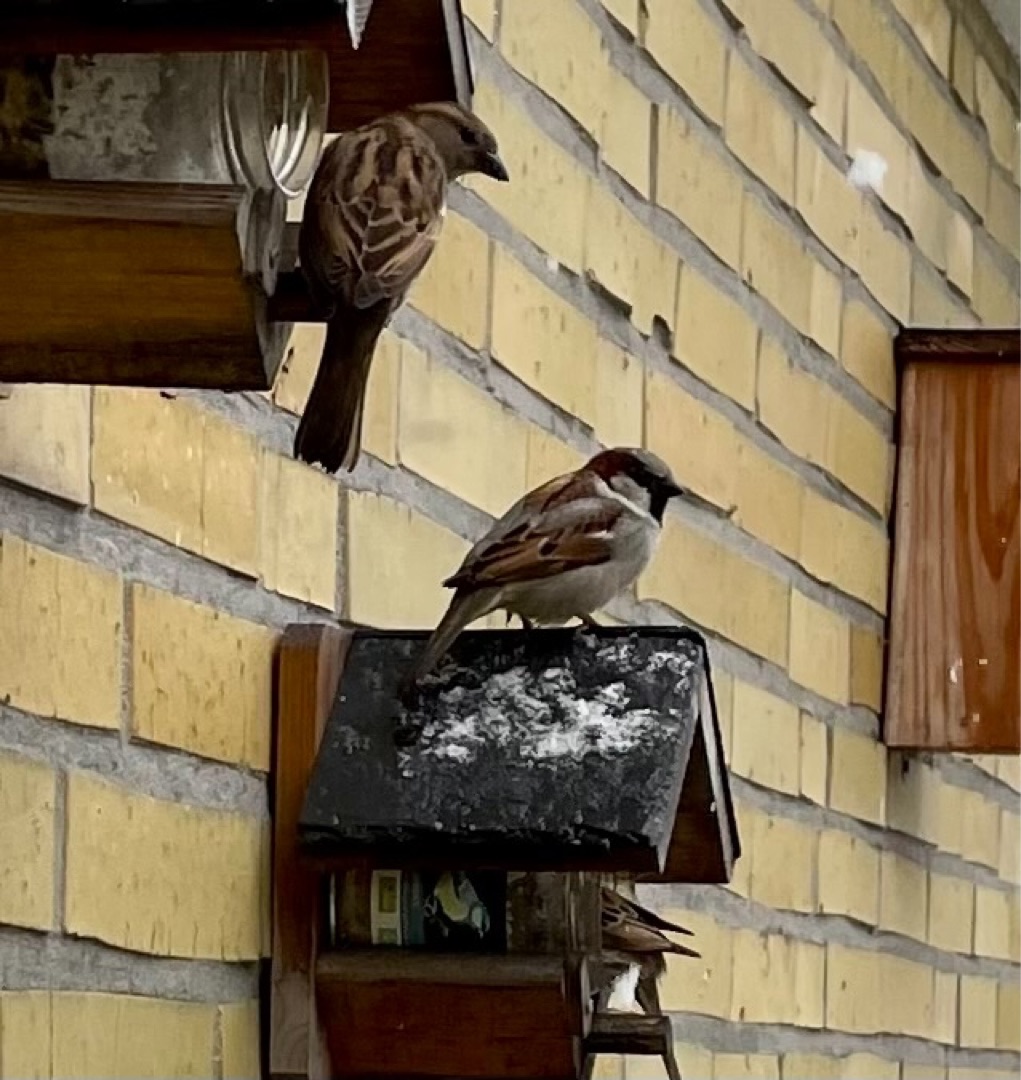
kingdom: Animalia
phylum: Chordata
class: Aves
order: Passeriformes
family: Passeridae
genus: Passer
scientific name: Passer domesticus
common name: Gråspurv
